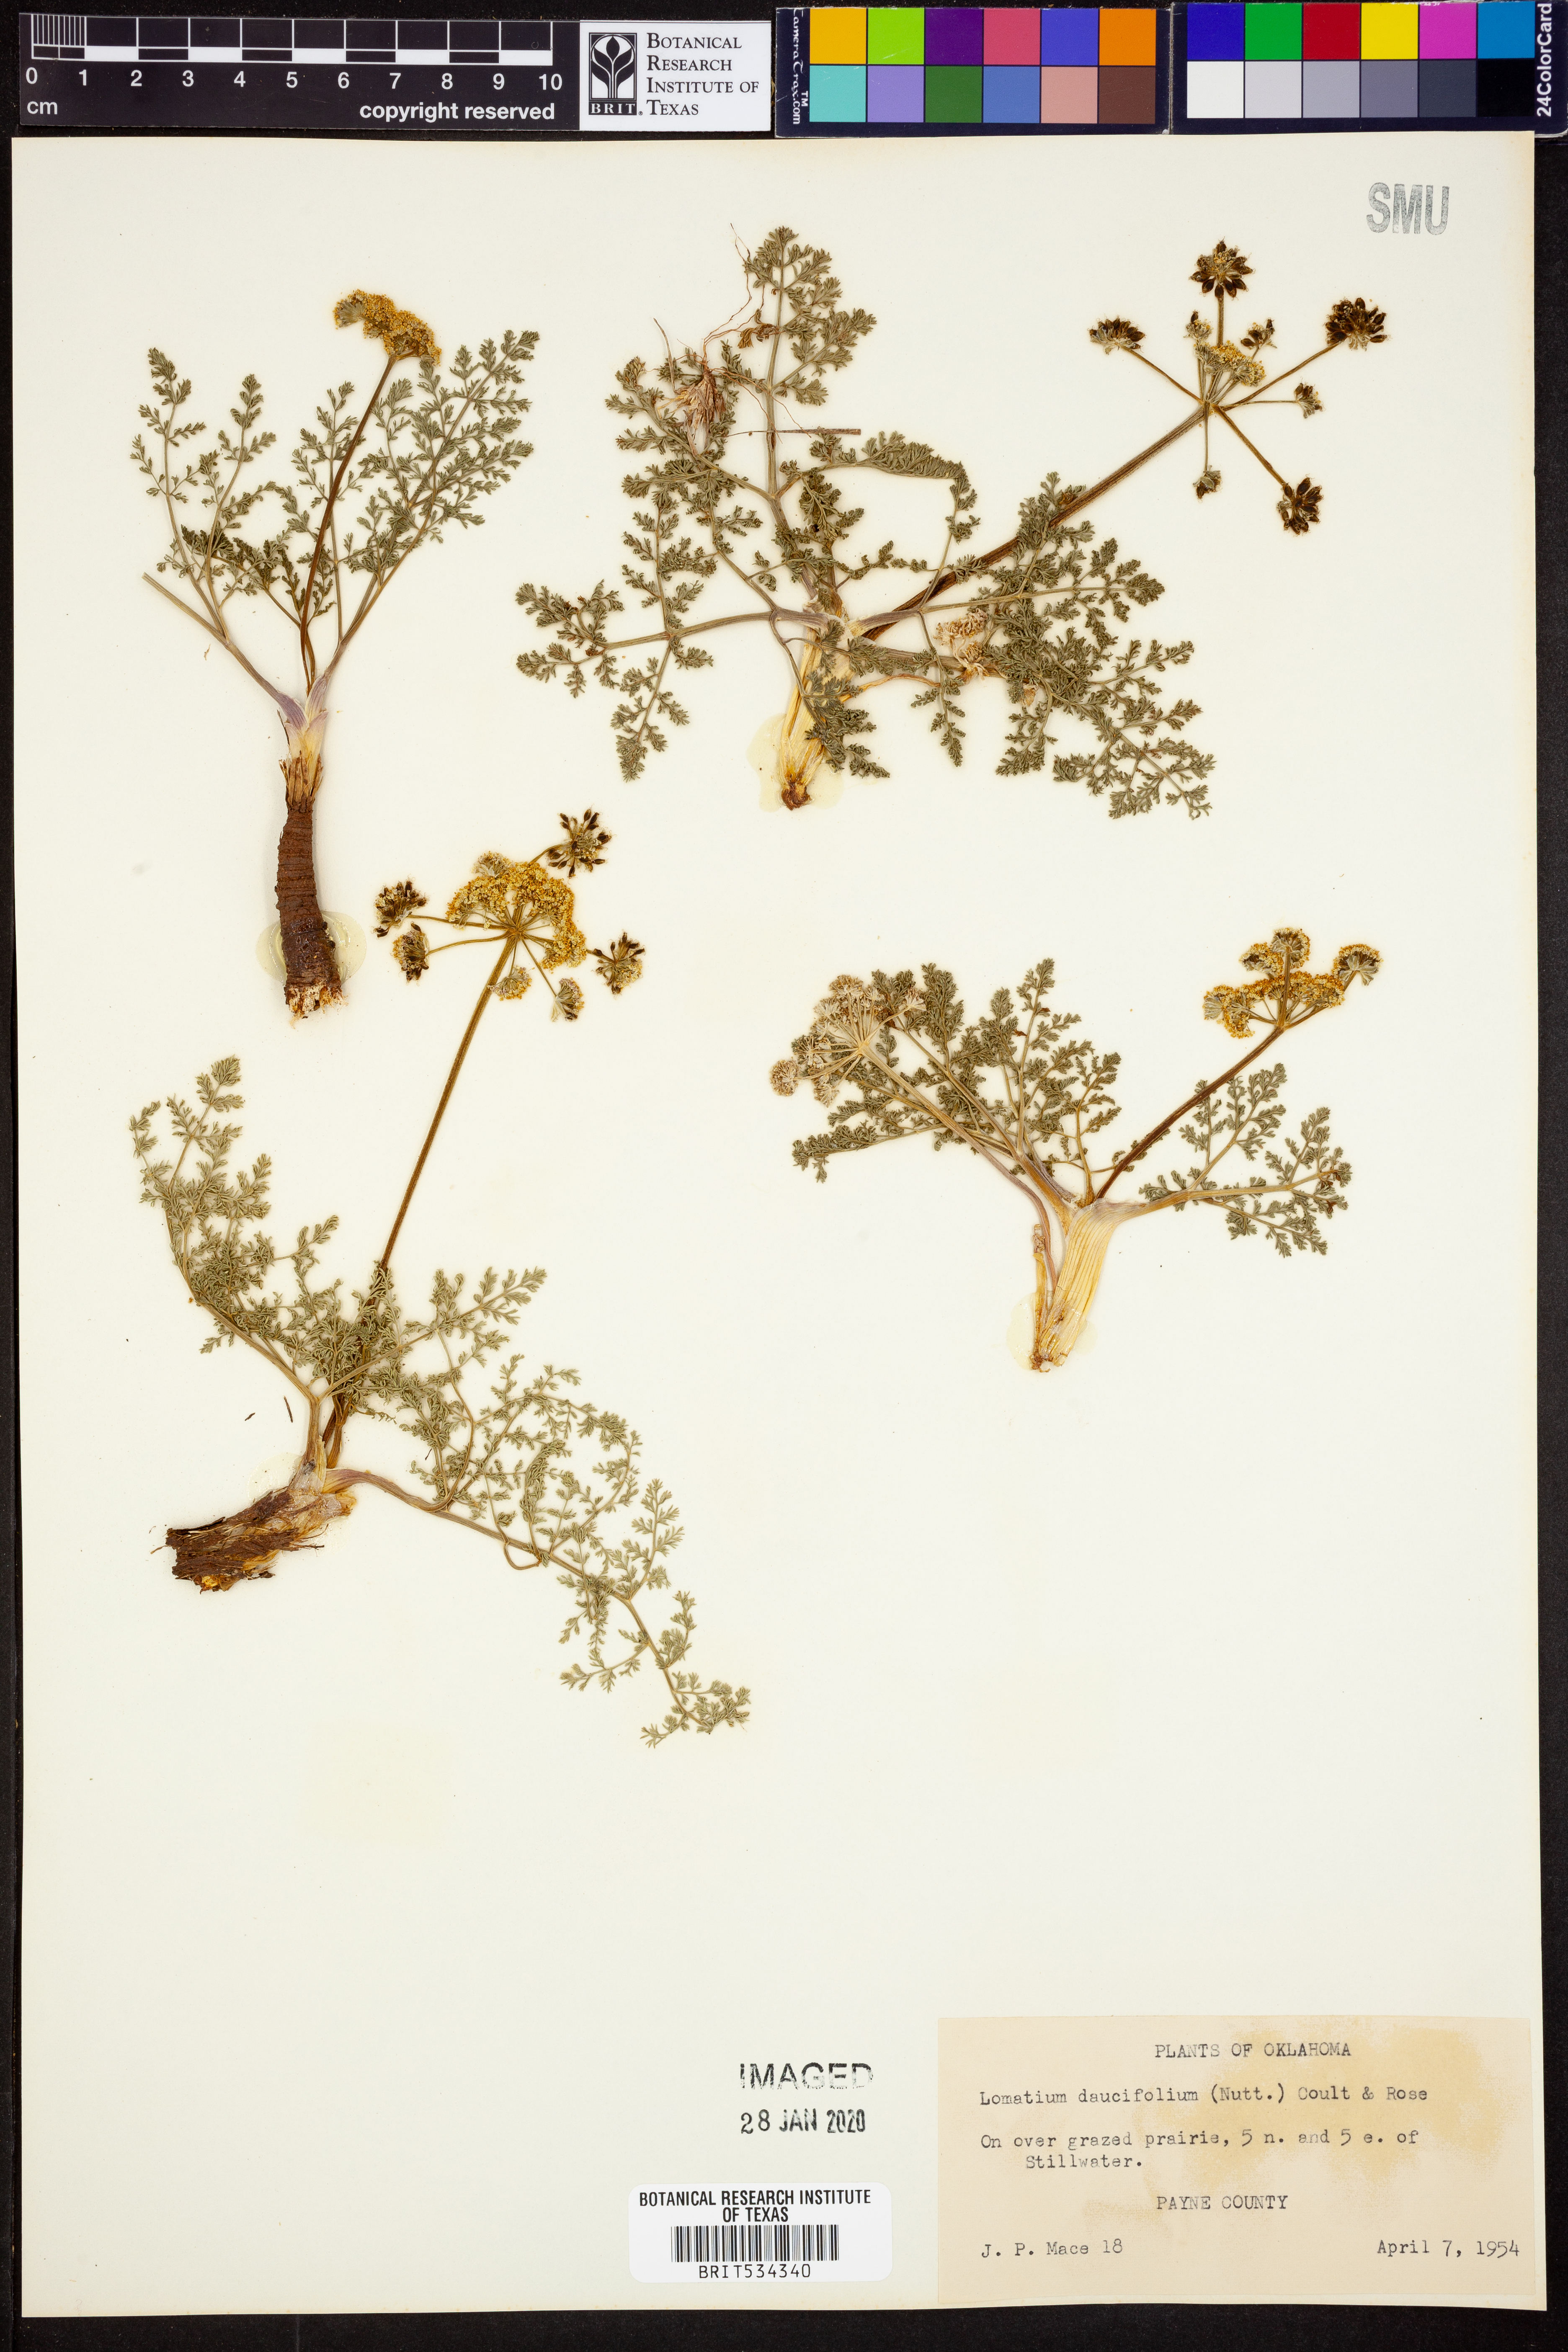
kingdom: Plantae
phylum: Tracheophyta
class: Magnoliopsida
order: Apiales
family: Apiaceae
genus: Lomatium
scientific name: Lomatium foeniculaceum
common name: Desert-parsley
